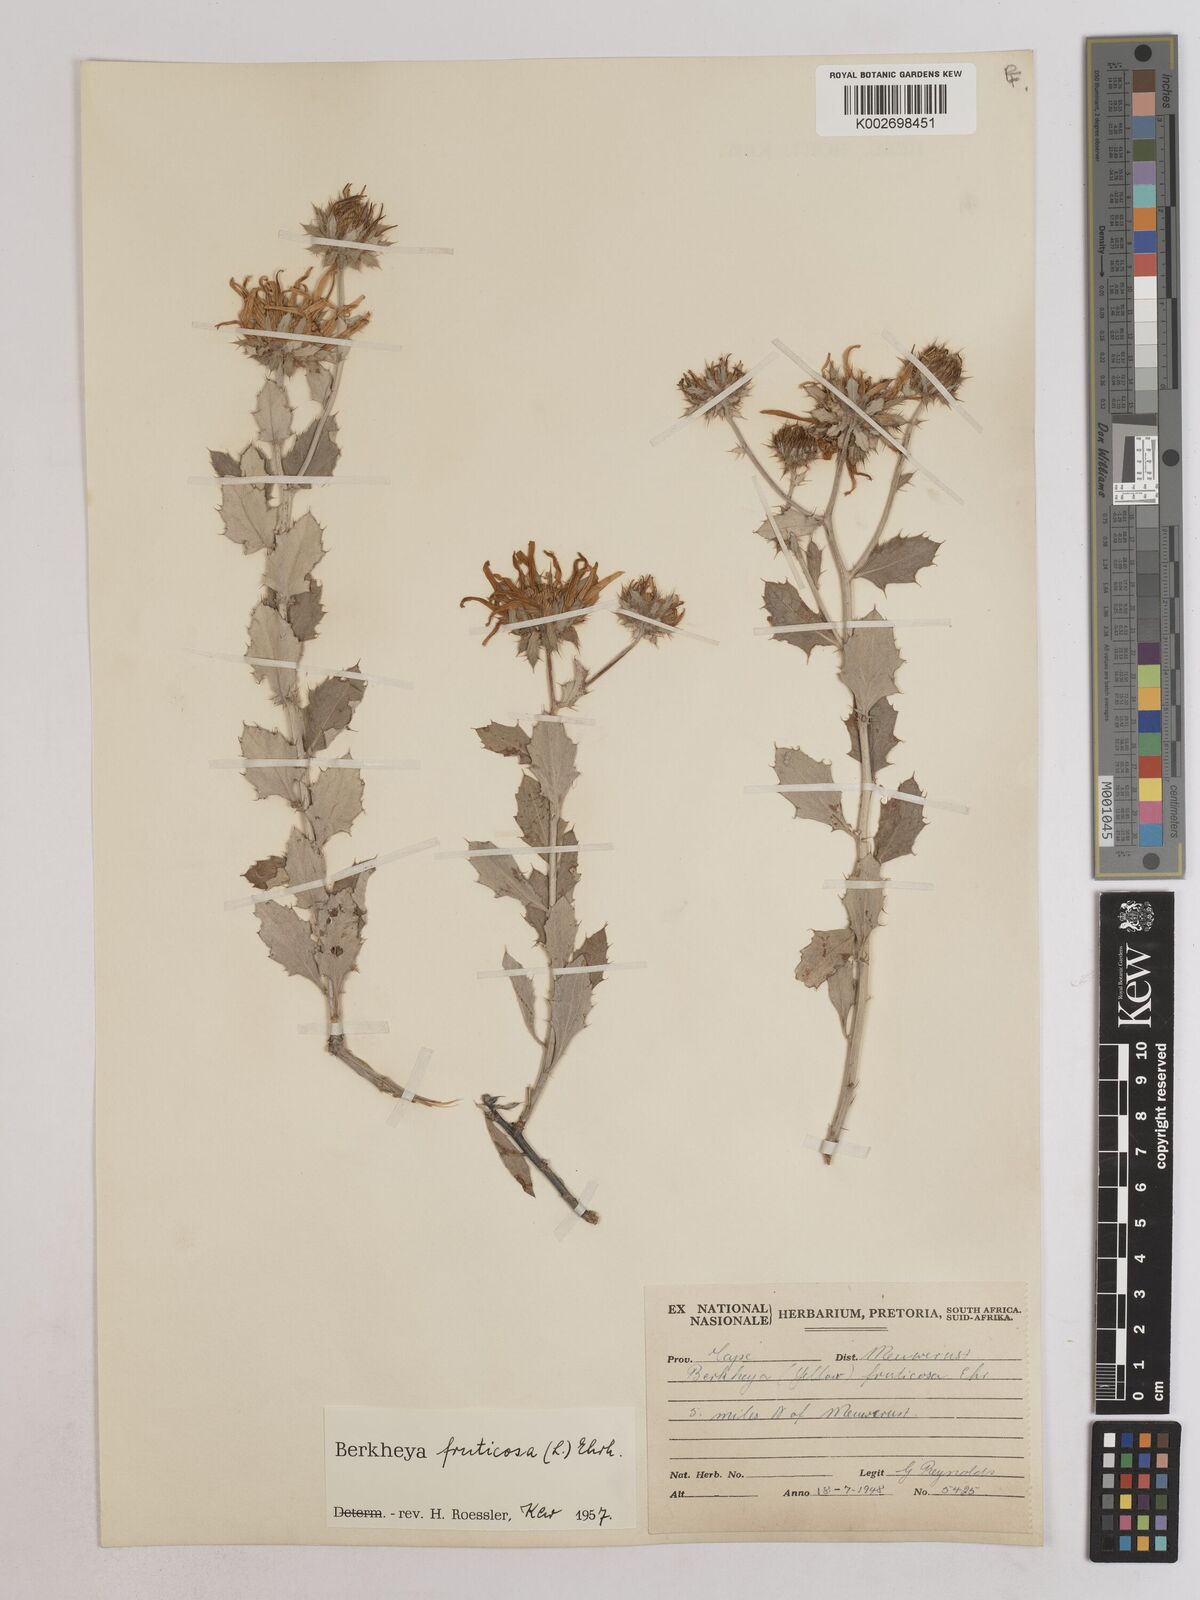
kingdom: Plantae
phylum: Tracheophyta
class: Magnoliopsida
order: Asterales
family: Asteraceae
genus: Berkheya
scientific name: Berkheya fruticosa
